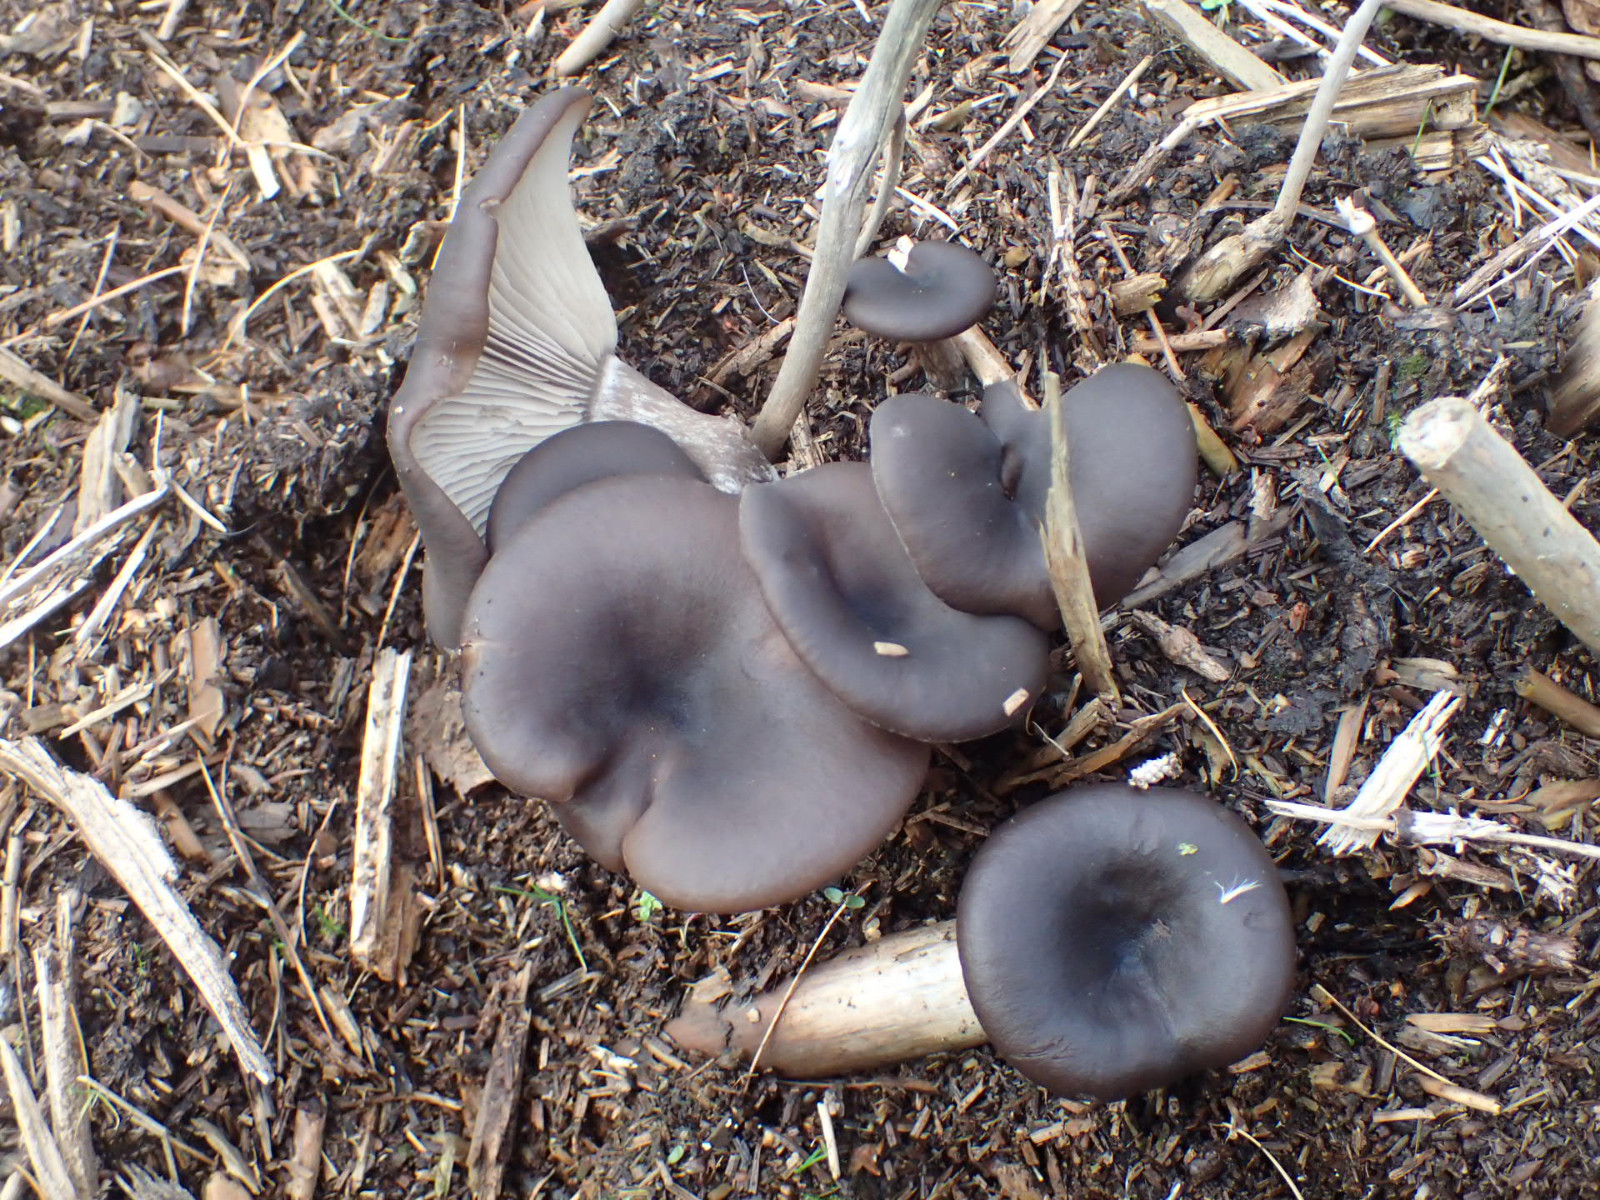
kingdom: Fungi
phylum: Basidiomycota
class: Agaricomycetes
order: Agaricales
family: Pseudoclitocybaceae
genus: Pseudoclitocybe
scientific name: Pseudoclitocybe cyathiformis
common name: almindelig bægertragthat
